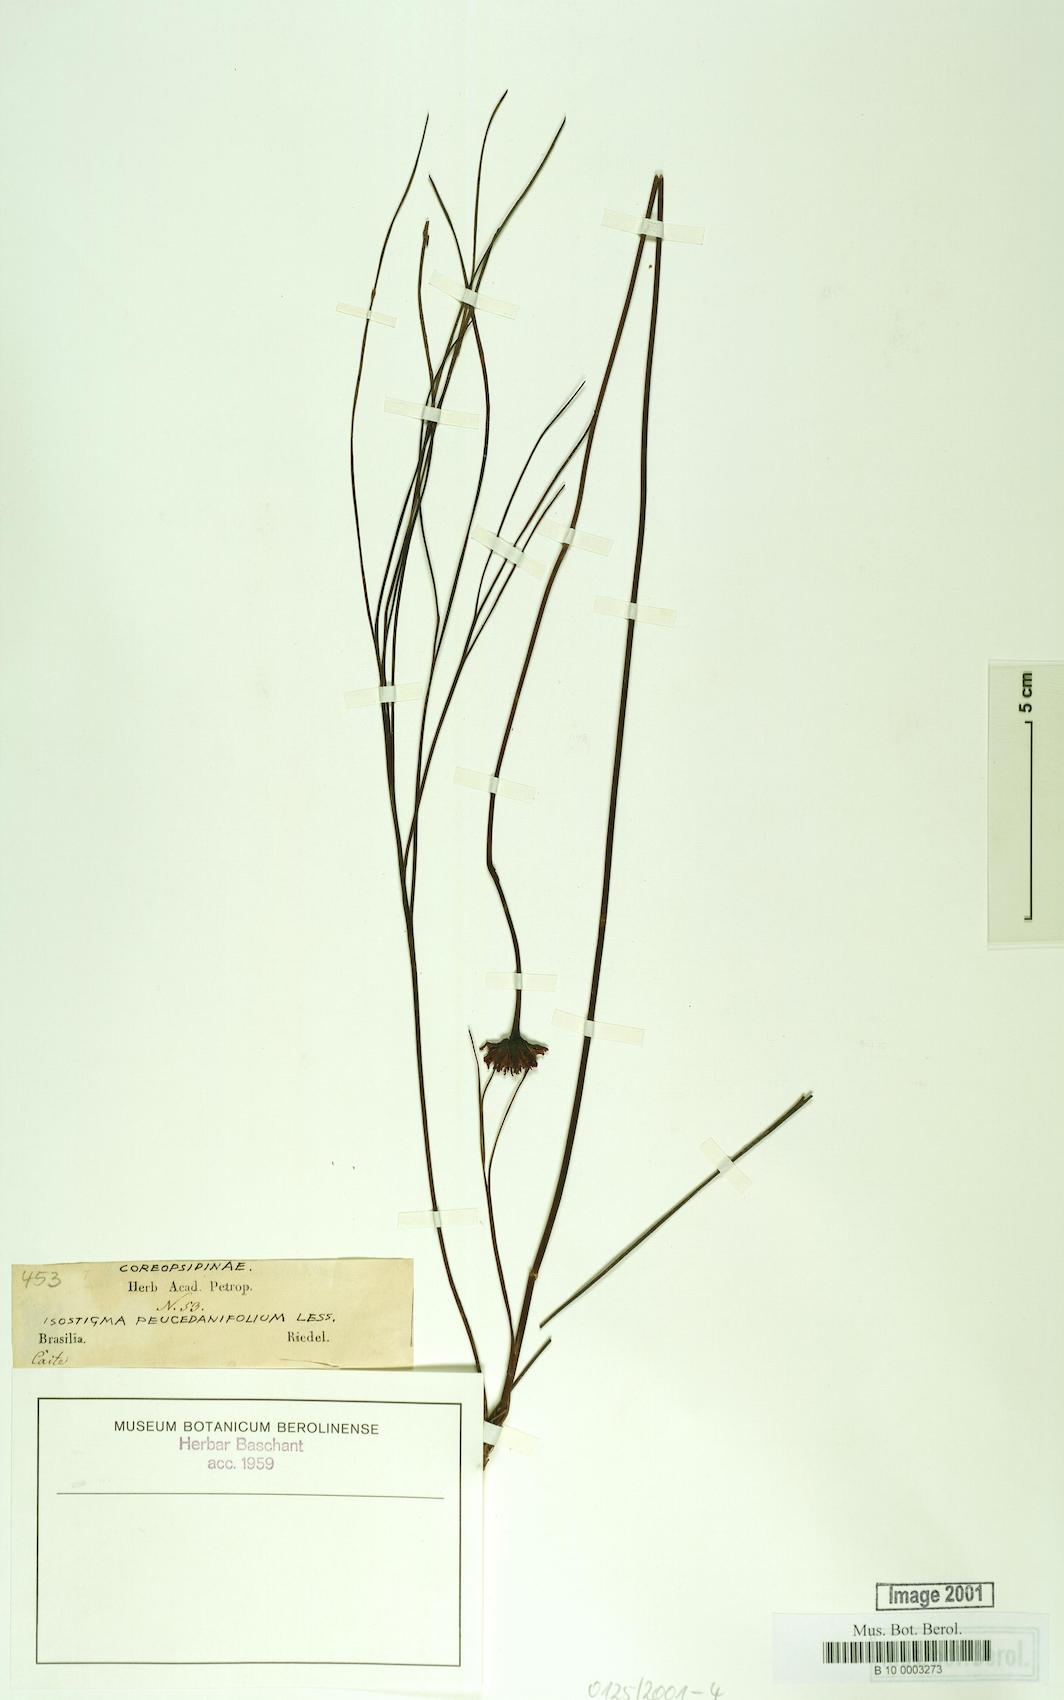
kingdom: Plantae
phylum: Tracheophyta
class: Magnoliopsida
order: Asterales
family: Asteraceae
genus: Isostigma
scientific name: Isostigma peucedanifolium
